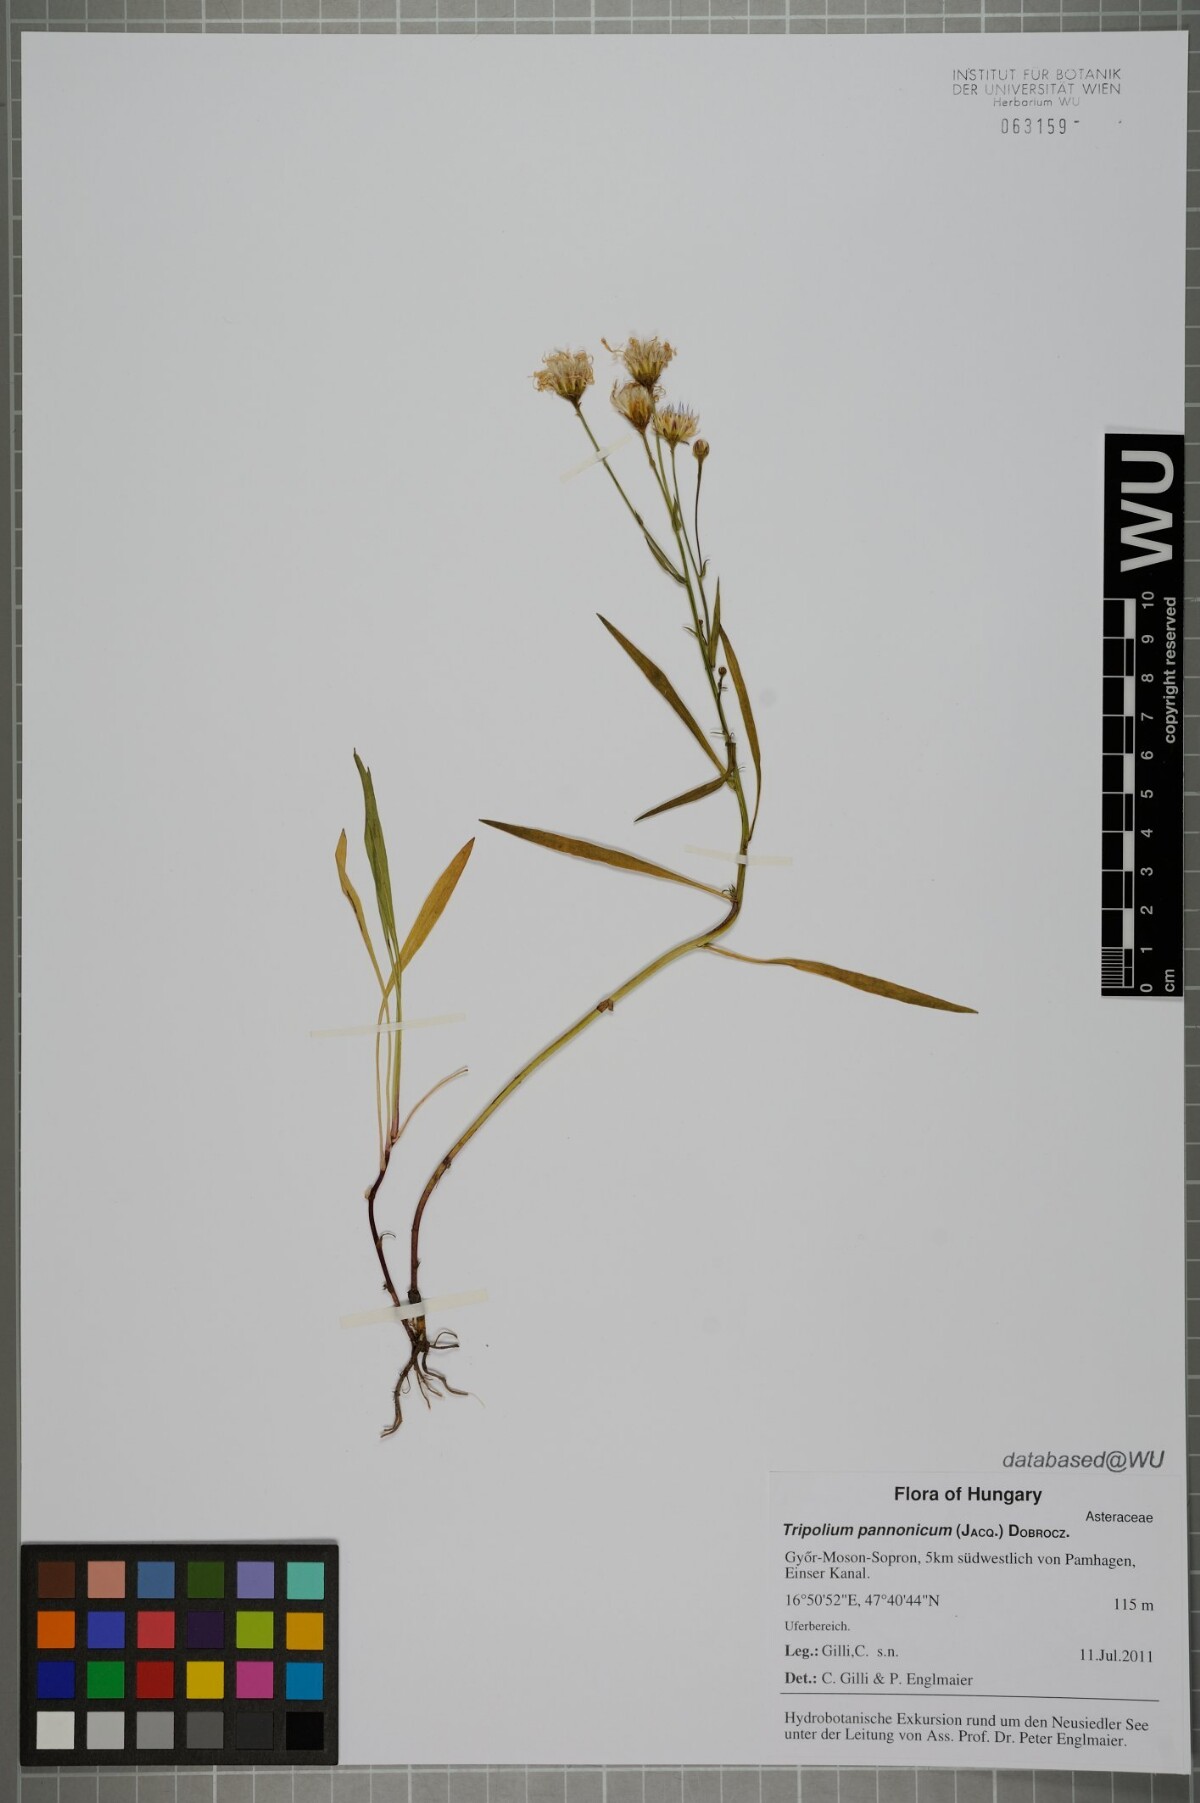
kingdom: Plantae
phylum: Tracheophyta
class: Magnoliopsida
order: Asterales
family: Asteraceae
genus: Tripolium
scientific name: Tripolium pannonicum
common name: Sea aster
